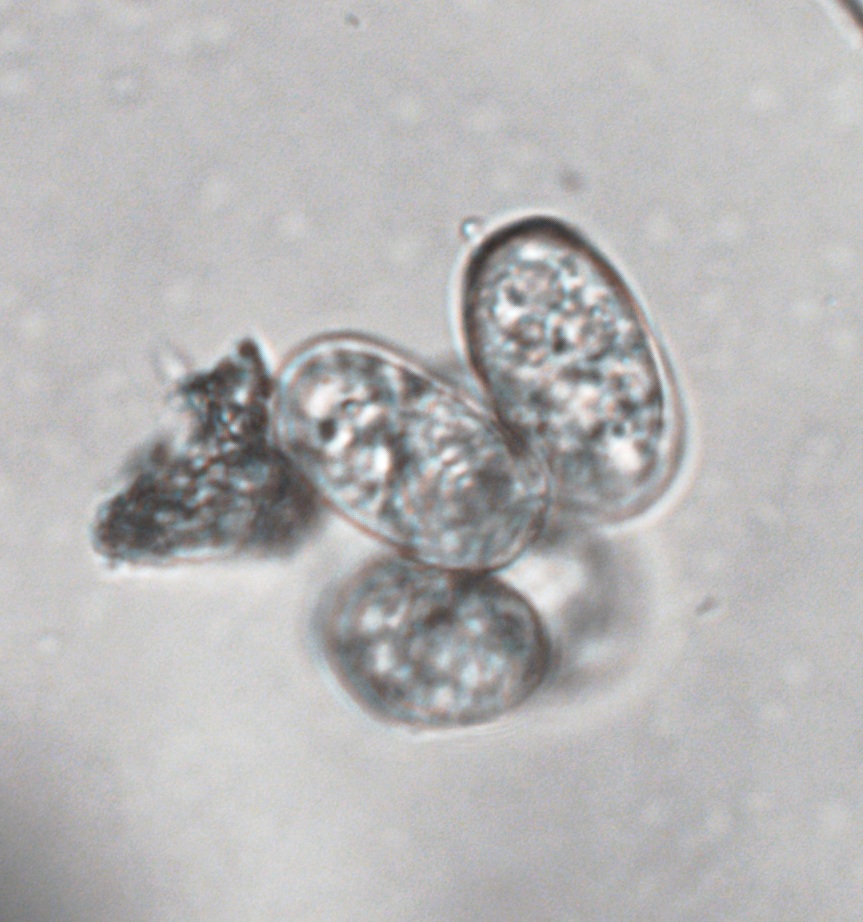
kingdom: Fungi
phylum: Ascomycota
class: Leotiomycetes
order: Helotiales
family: Erysiphaceae
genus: Erysiphe
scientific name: Erysiphe heraclei
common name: skærmplante-meldug
